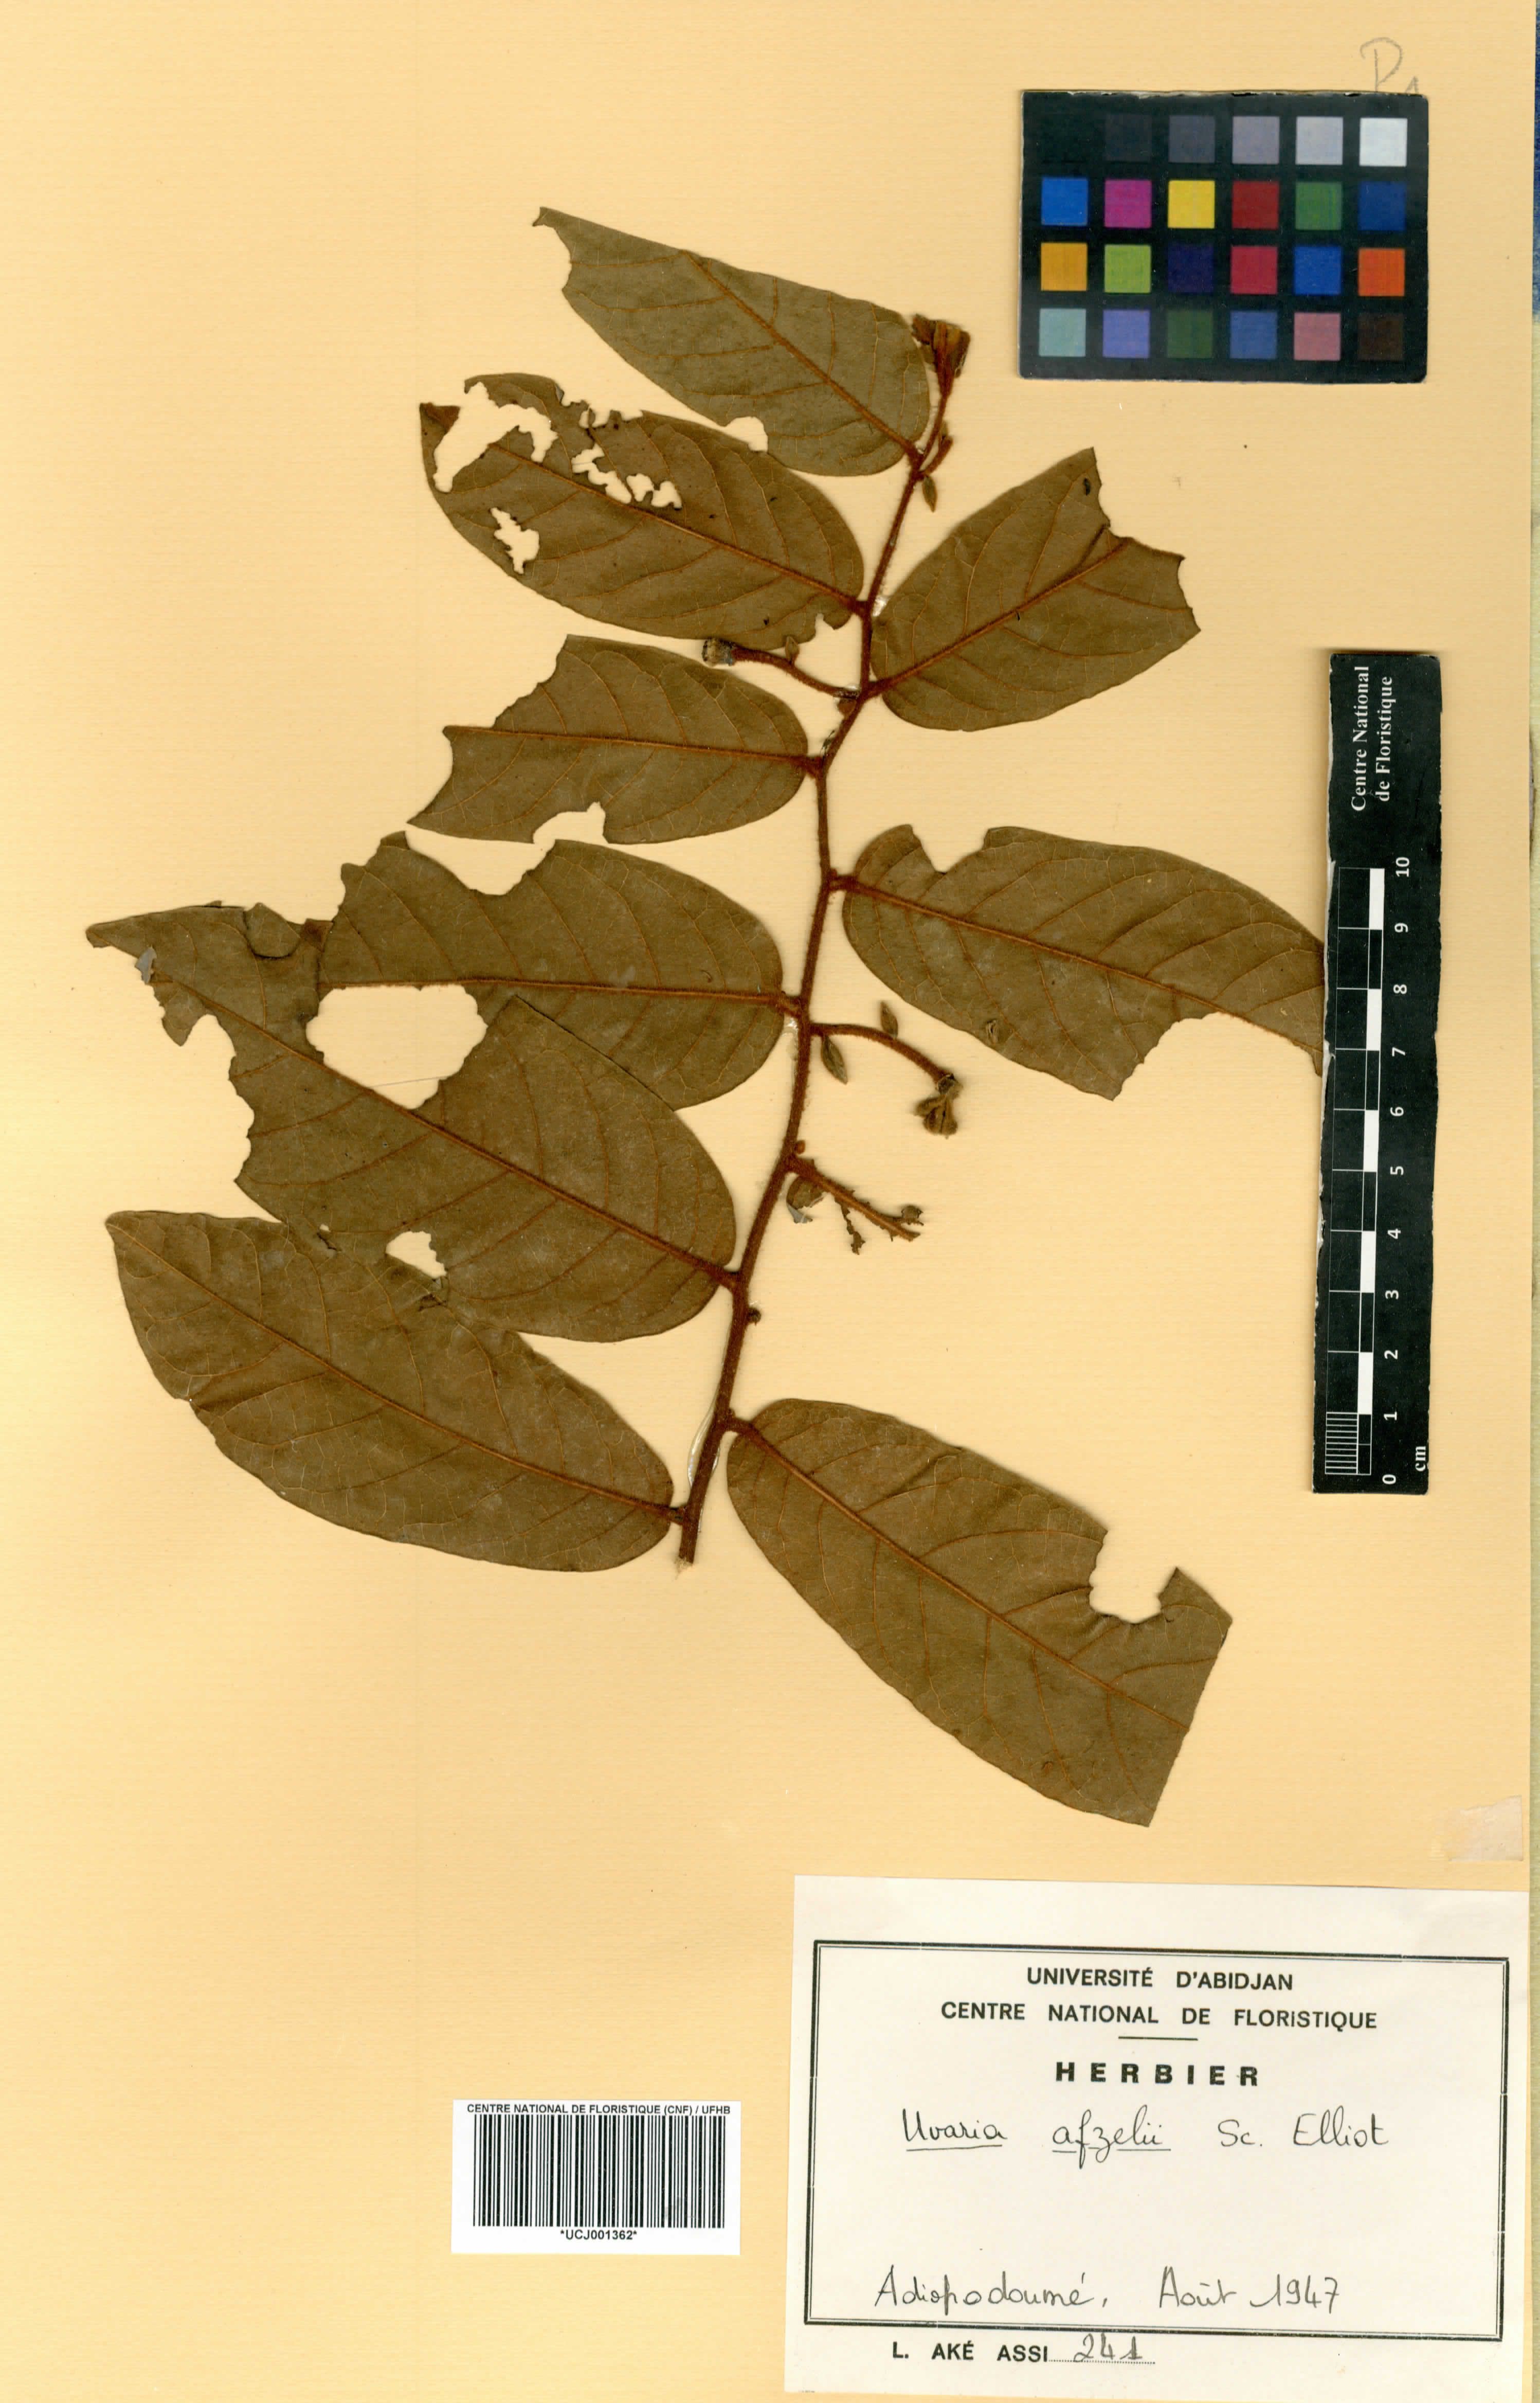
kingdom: Plantae
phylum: Tracheophyta
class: Magnoliopsida
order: Magnoliales
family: Annonaceae
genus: Uvaria
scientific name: Uvaria afzelii
